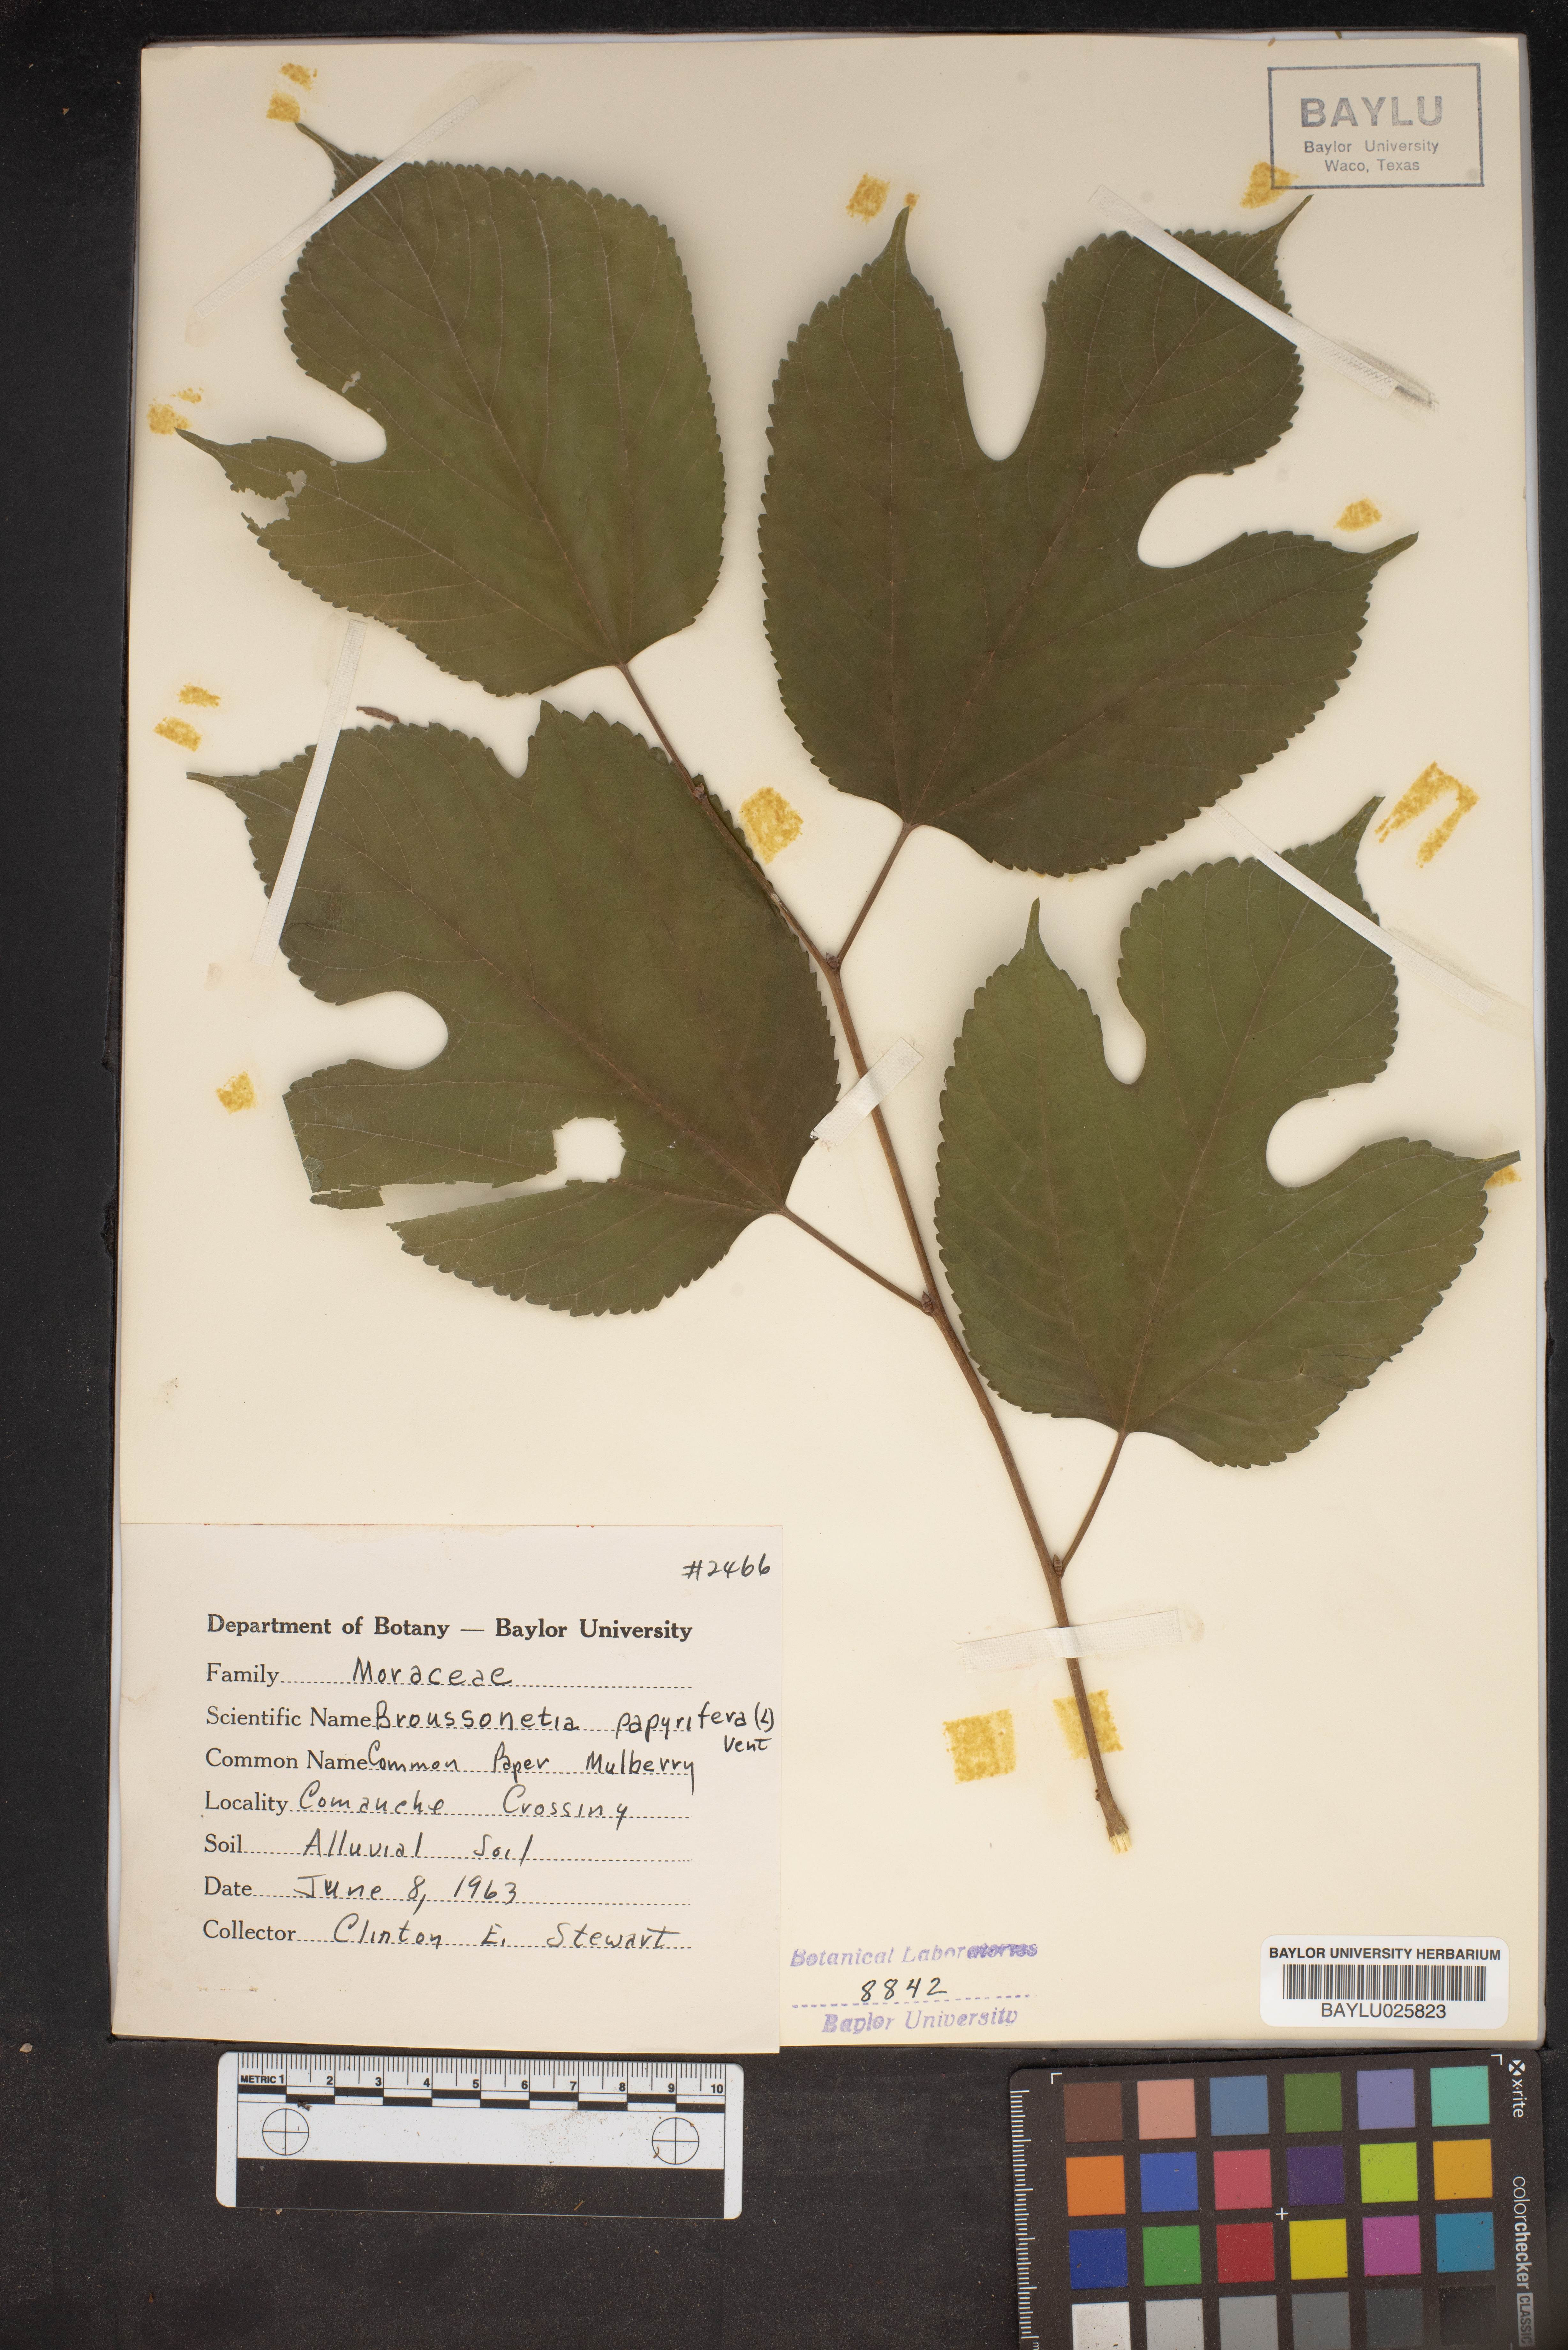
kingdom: Plantae
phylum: Tracheophyta
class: Magnoliopsida
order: Rosales
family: Moraceae
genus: Broussonetia
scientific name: Broussonetia papyrifera
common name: Paper mulberry
